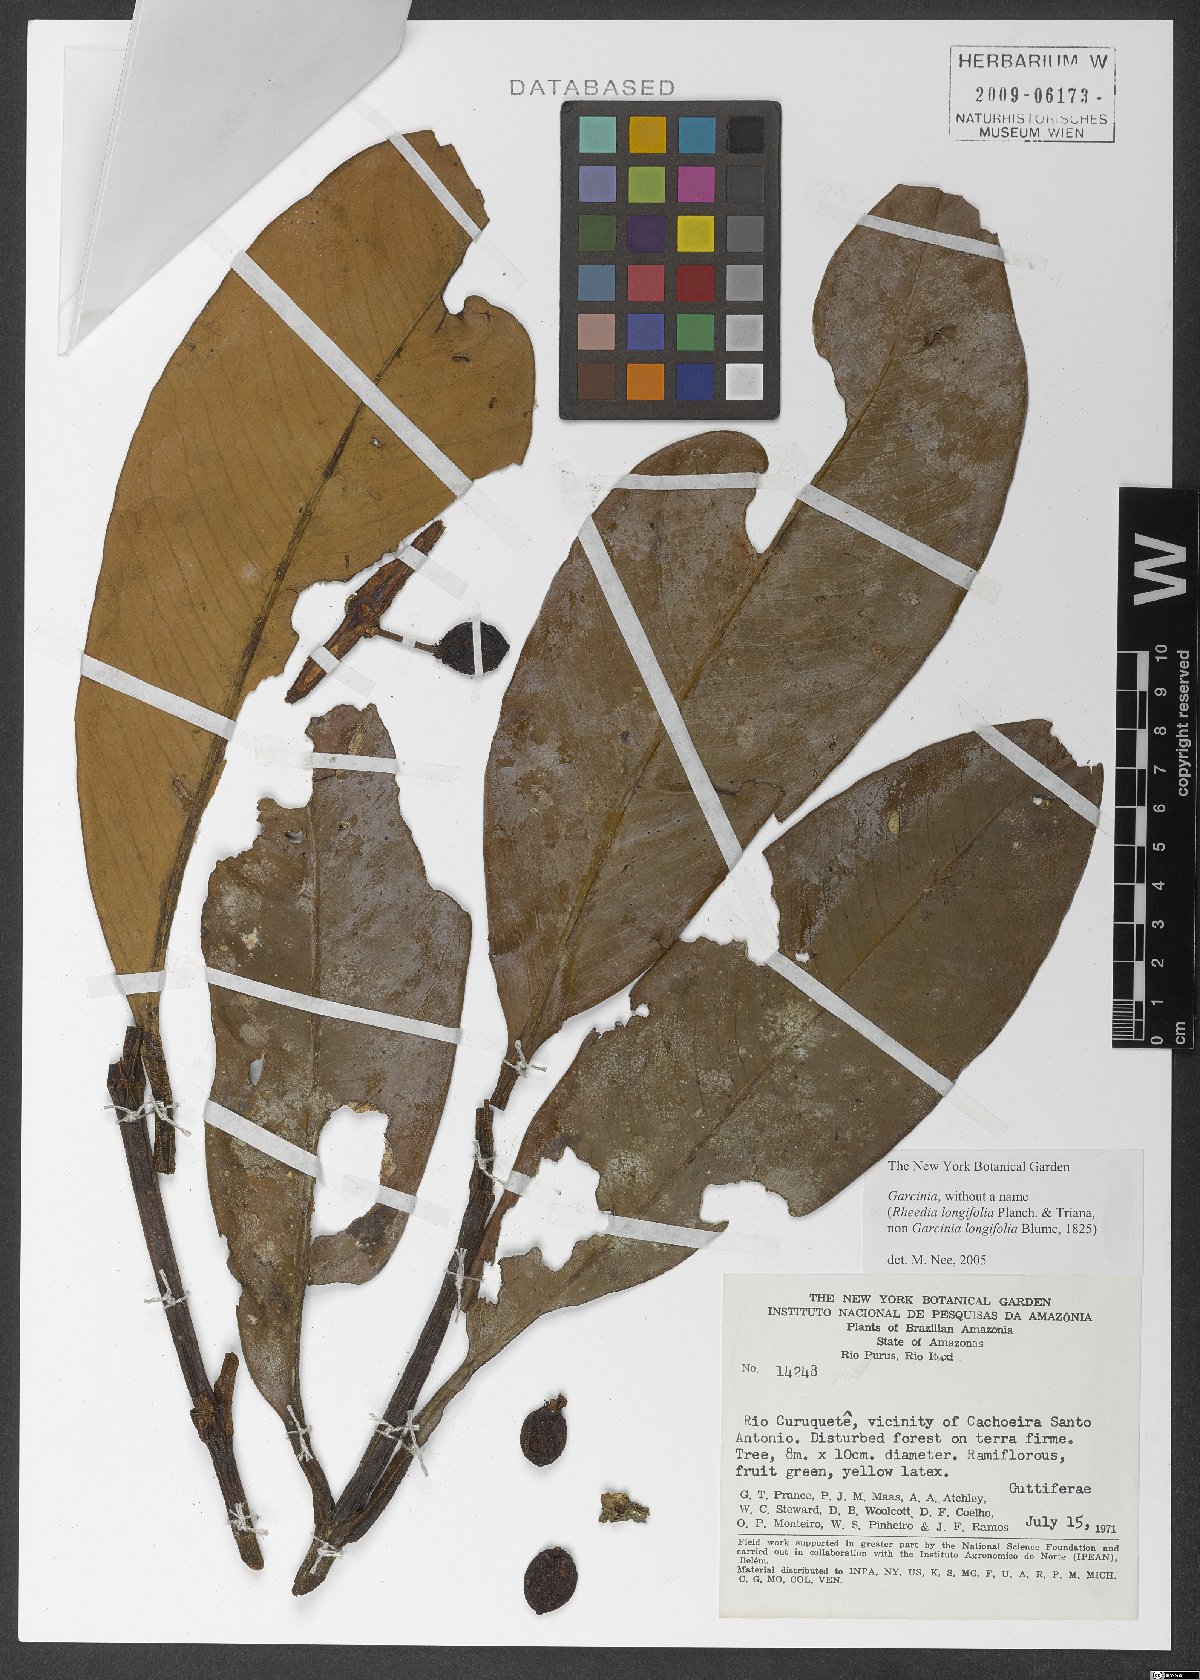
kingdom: Plantae
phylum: Tracheophyta
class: Magnoliopsida
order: Malpighiales
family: Clusiaceae
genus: Garcinia
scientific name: Garcinia leptophylla
